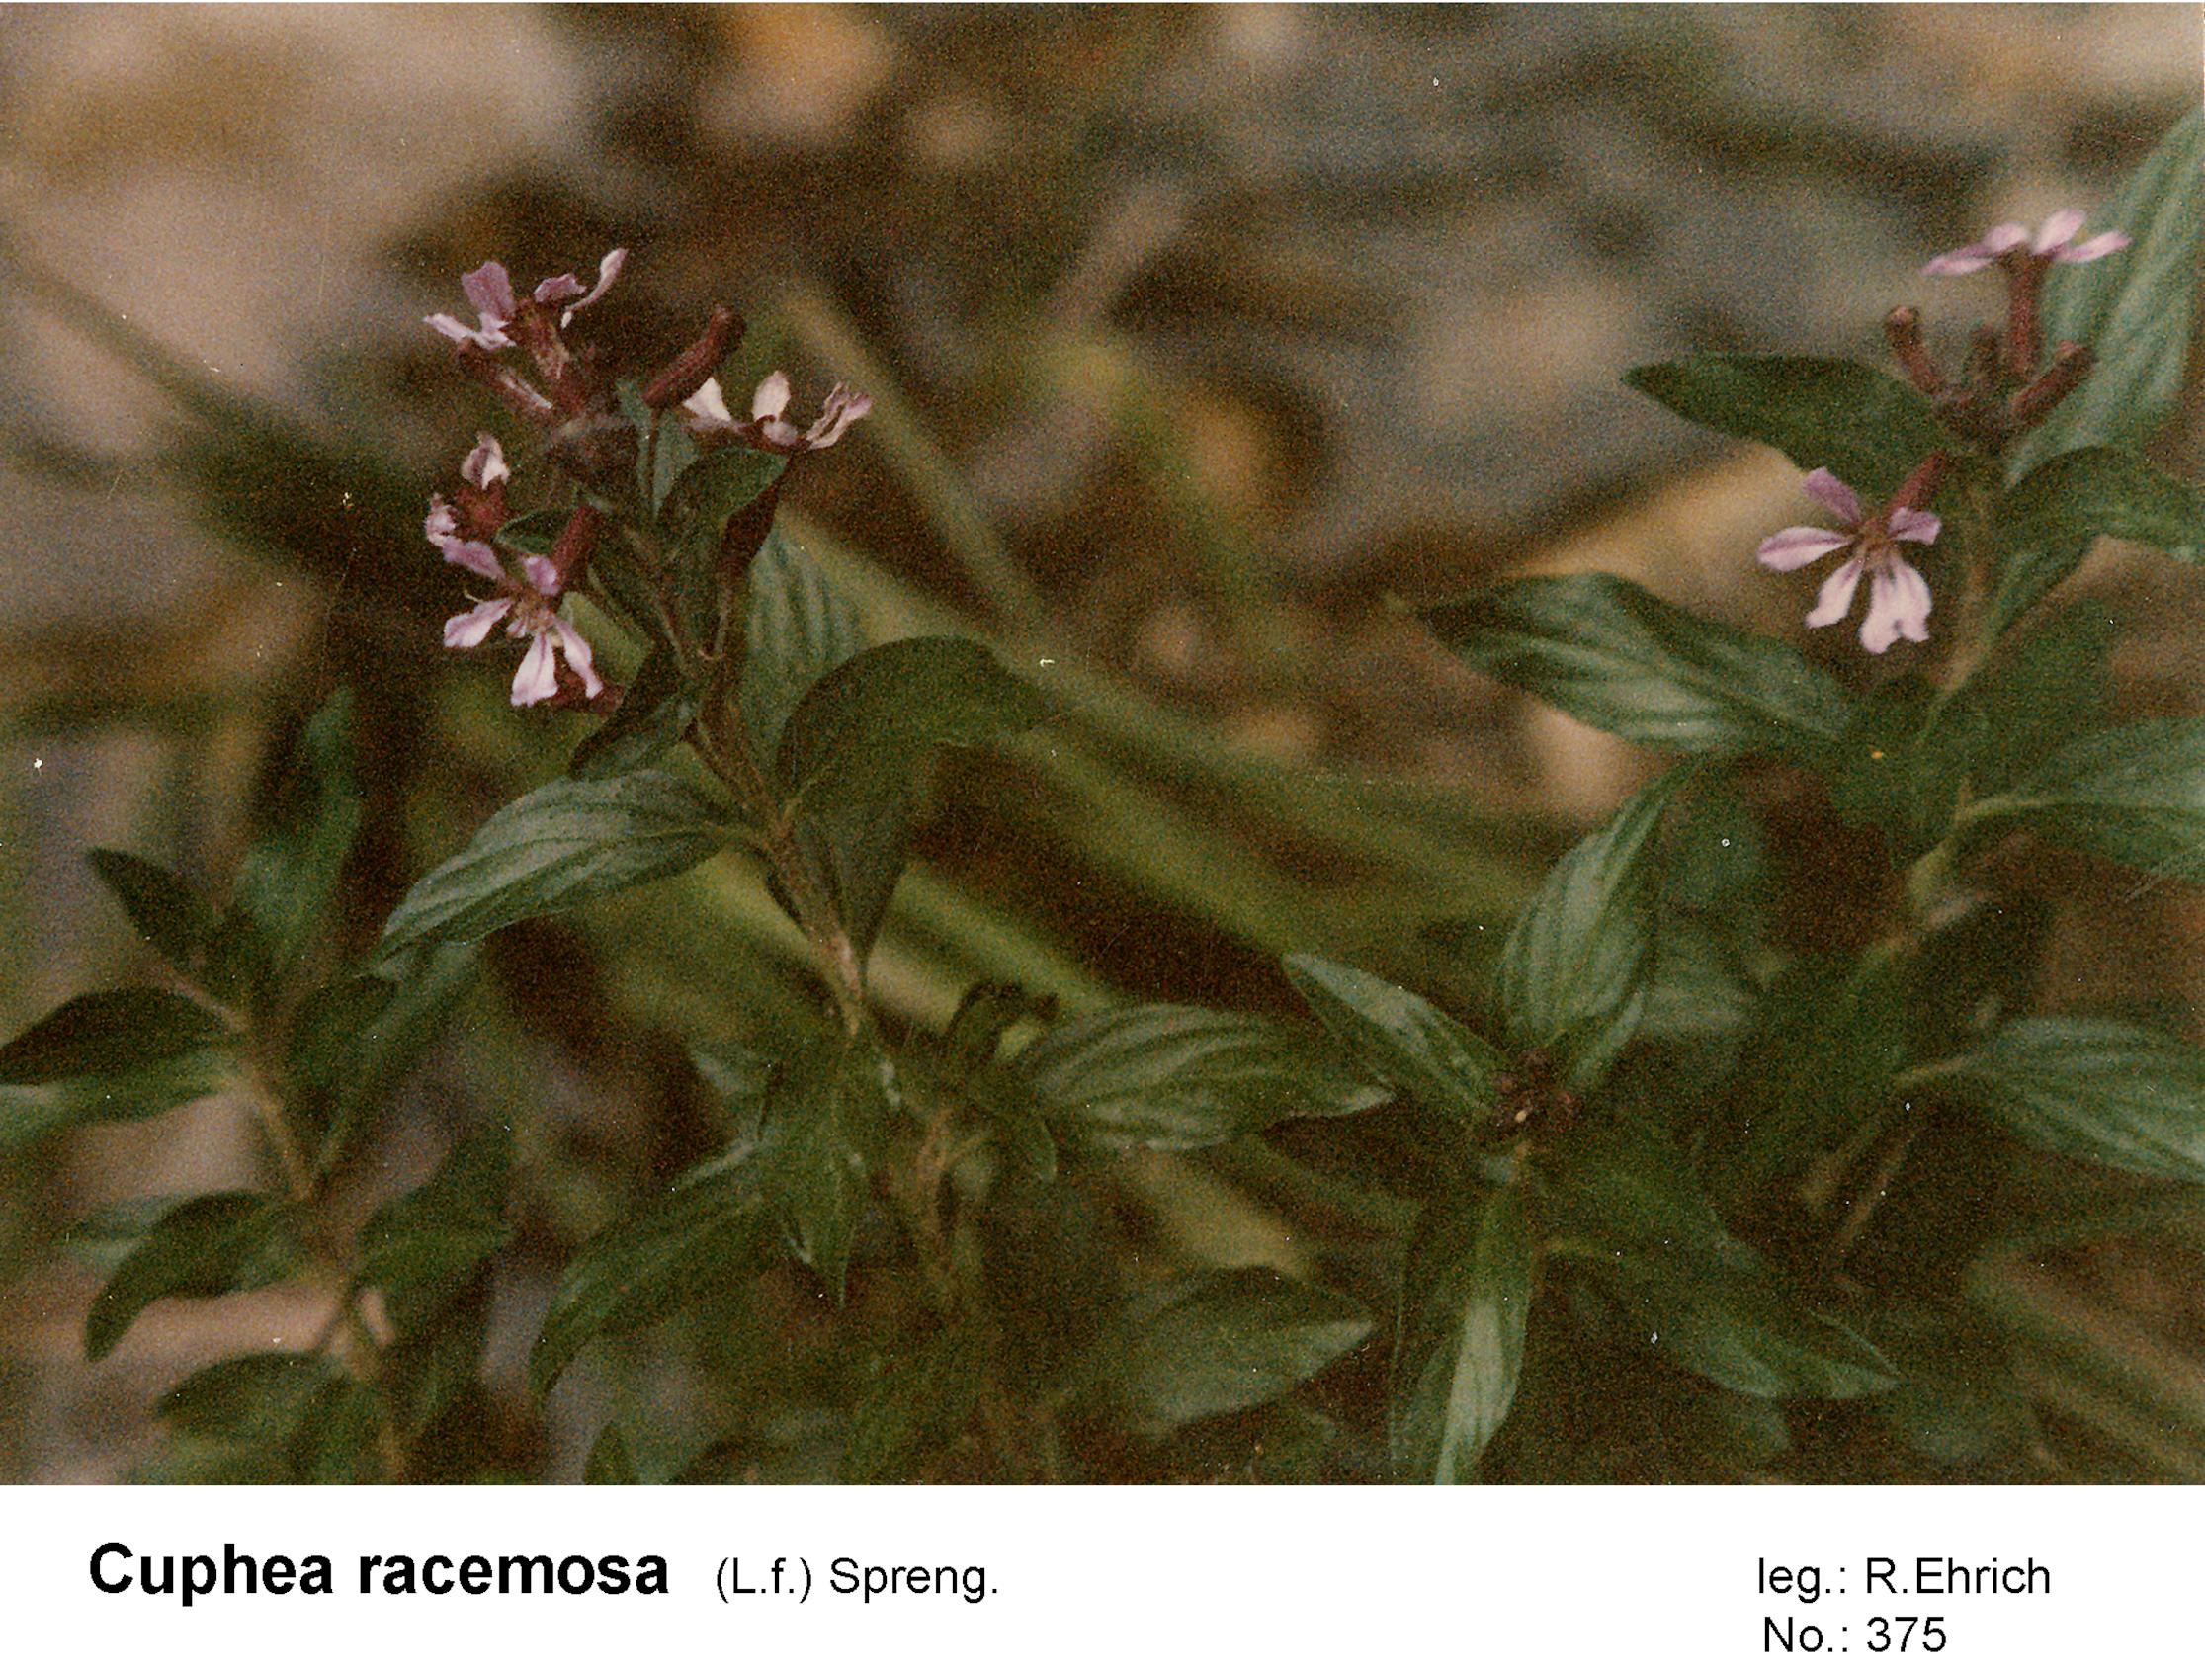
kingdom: Plantae
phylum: Tracheophyta
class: Magnoliopsida
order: Myrtales
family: Lythraceae
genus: Cuphea
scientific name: Cuphea racemosa
